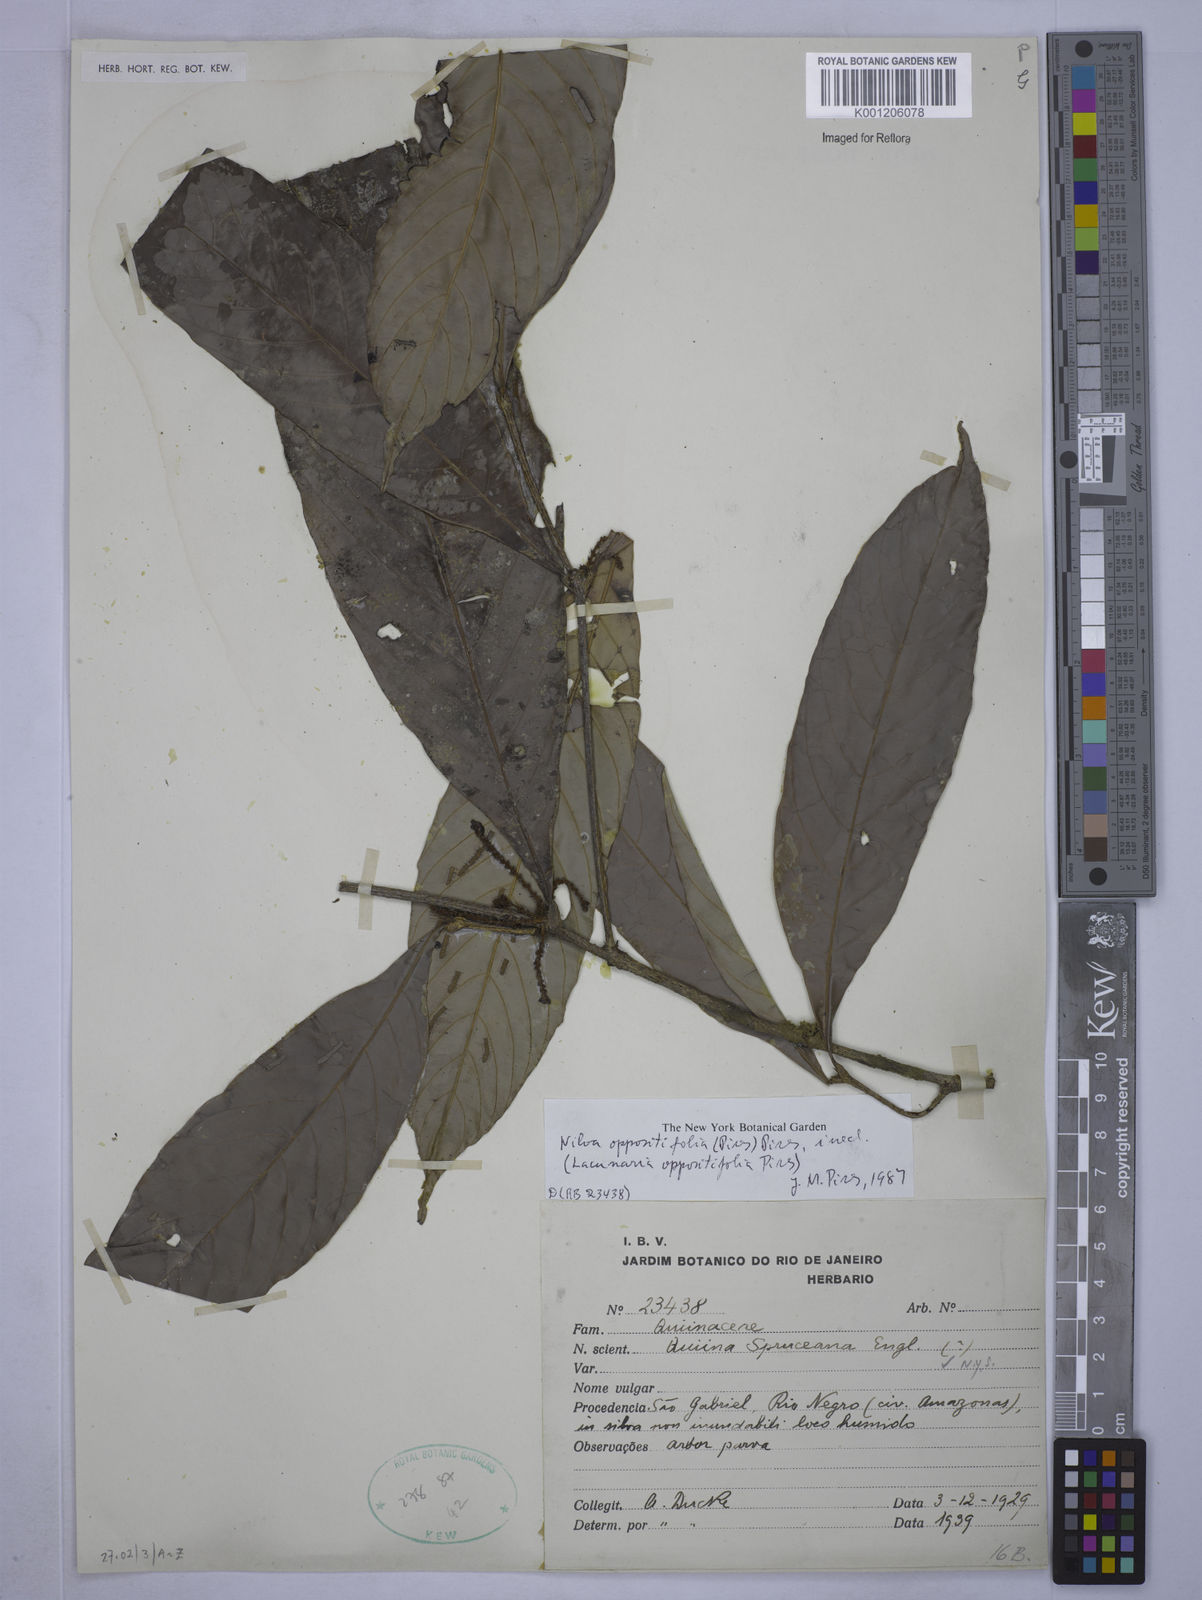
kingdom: Plantae
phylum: Tracheophyta
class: Magnoliopsida
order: Malpighiales
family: Quiinaceae
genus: Lacunaria
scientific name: Lacunaria oppositifolia
